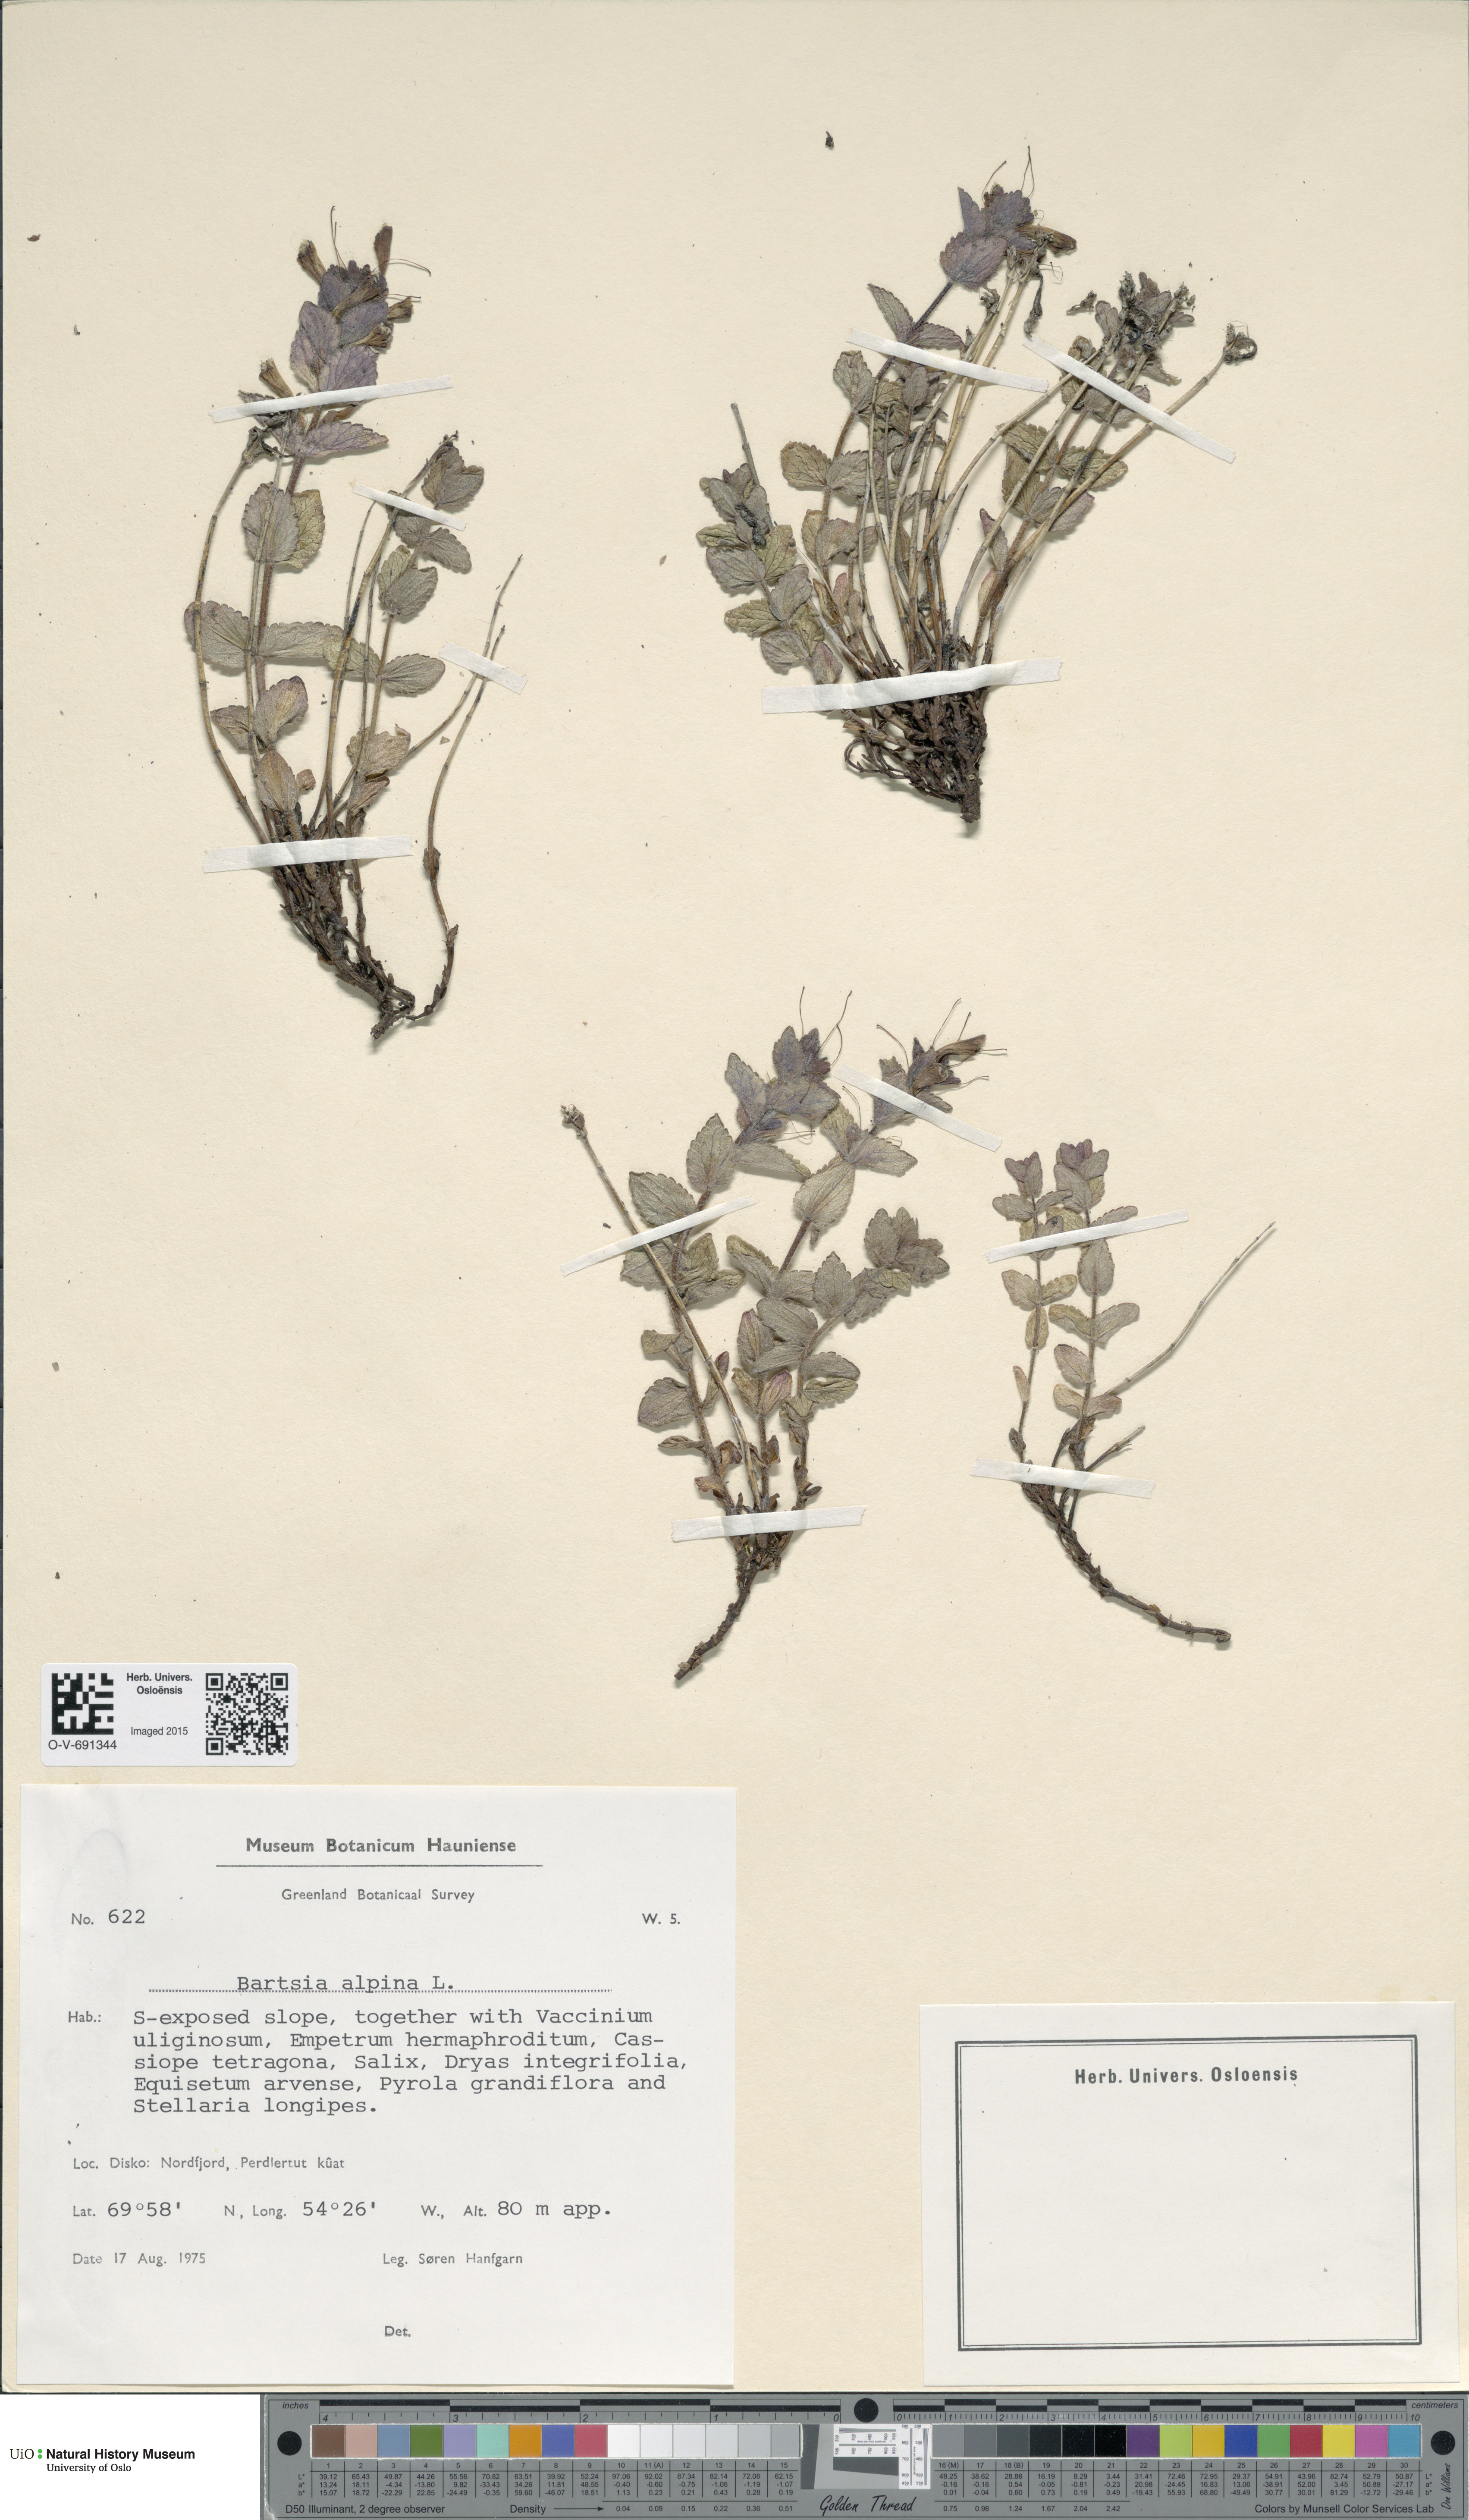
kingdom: Plantae
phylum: Tracheophyta
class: Magnoliopsida
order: Lamiales
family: Orobanchaceae
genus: Bartsia
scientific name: Bartsia alpina
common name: Alpine bartsia
